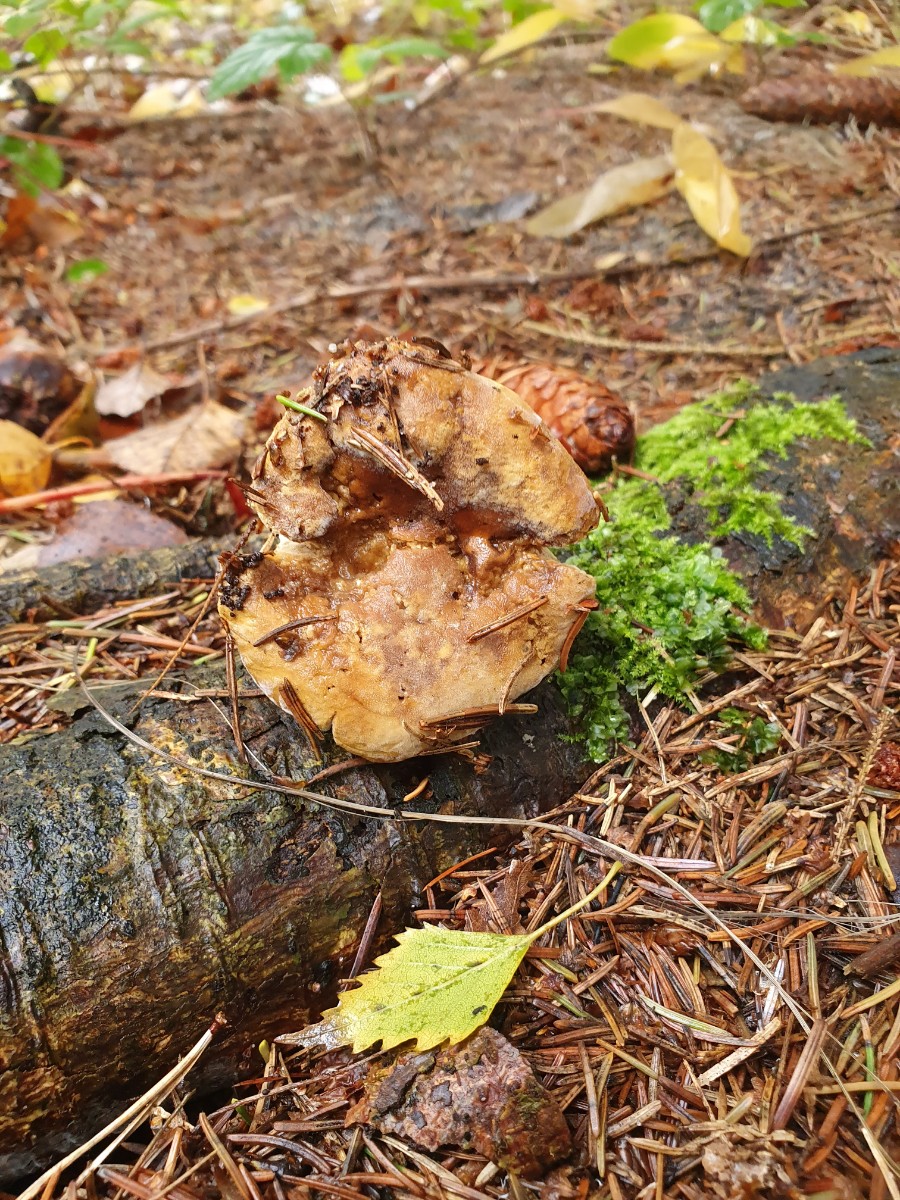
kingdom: Fungi
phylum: Ascomycota
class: Sordariomycetes
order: Hypocreales
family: Hypocreaceae
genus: Hypomyces
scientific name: Hypomyces
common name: snylteskorpe
